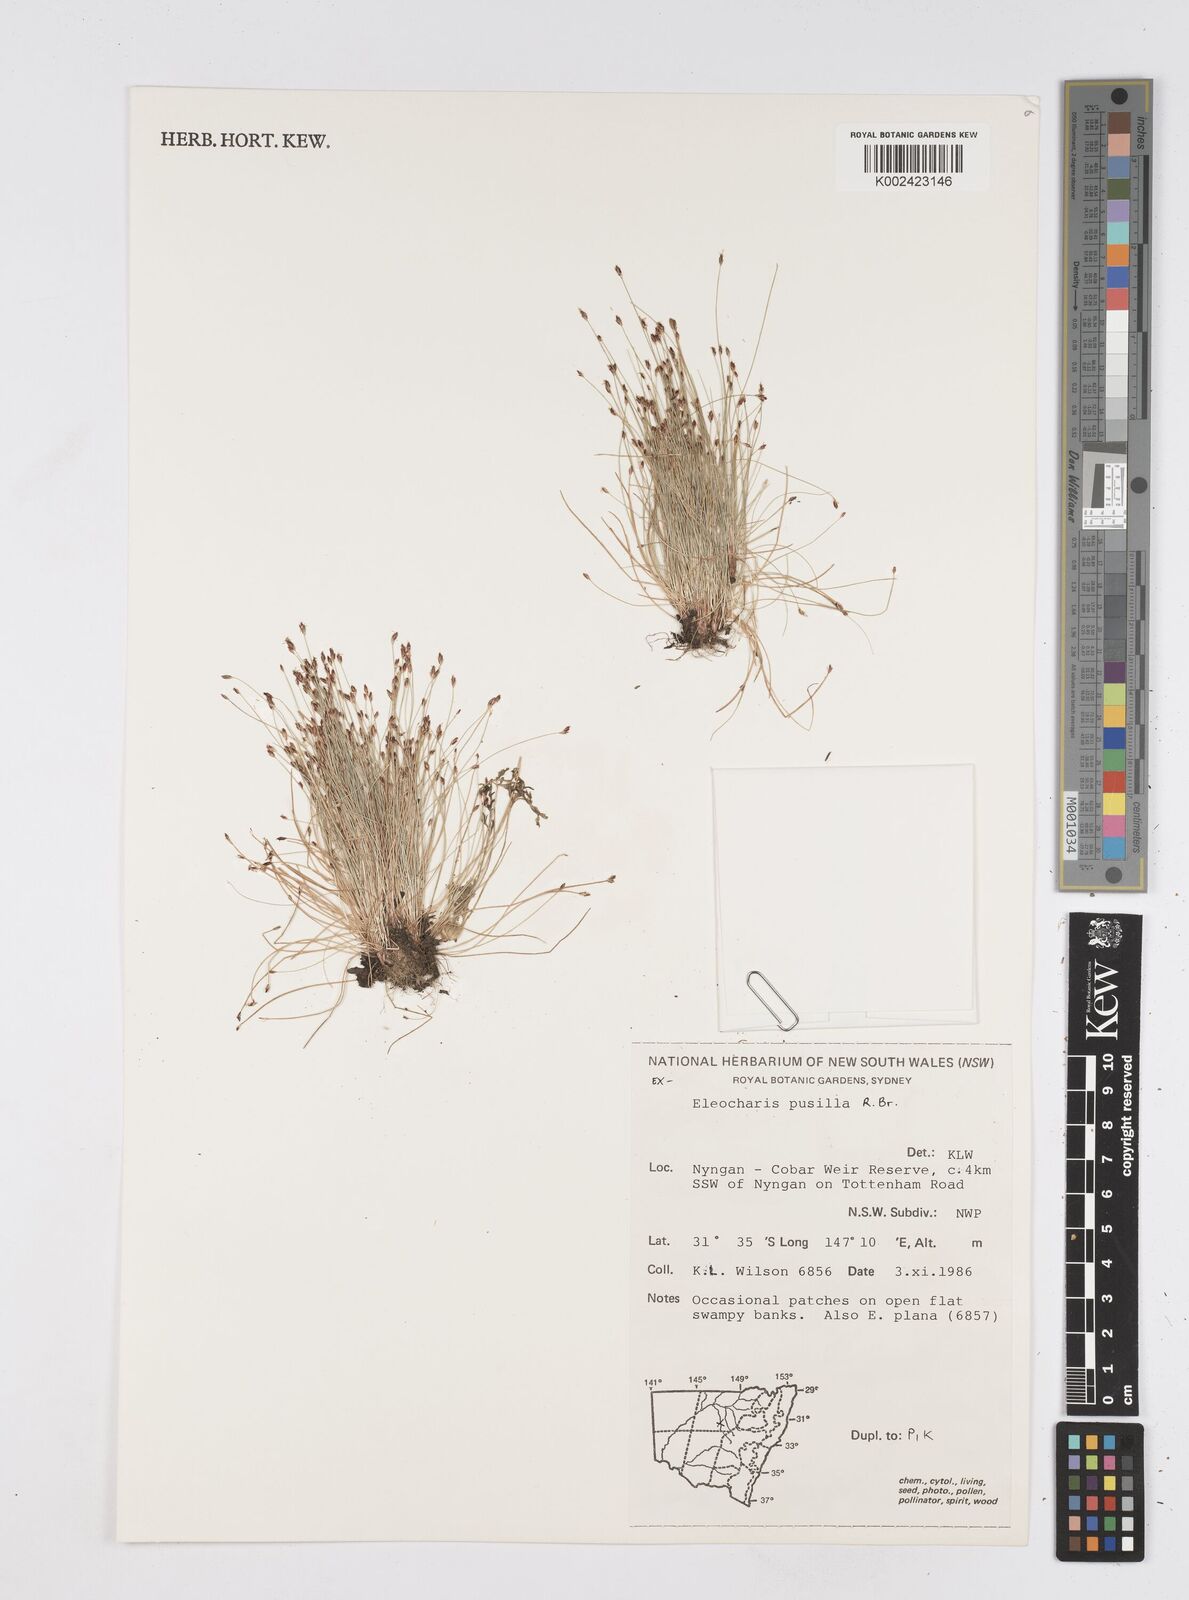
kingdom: Plantae
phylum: Tracheophyta
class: Liliopsida
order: Poales
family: Cyperaceae
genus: Eleocharis
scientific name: Eleocharis pusilla
